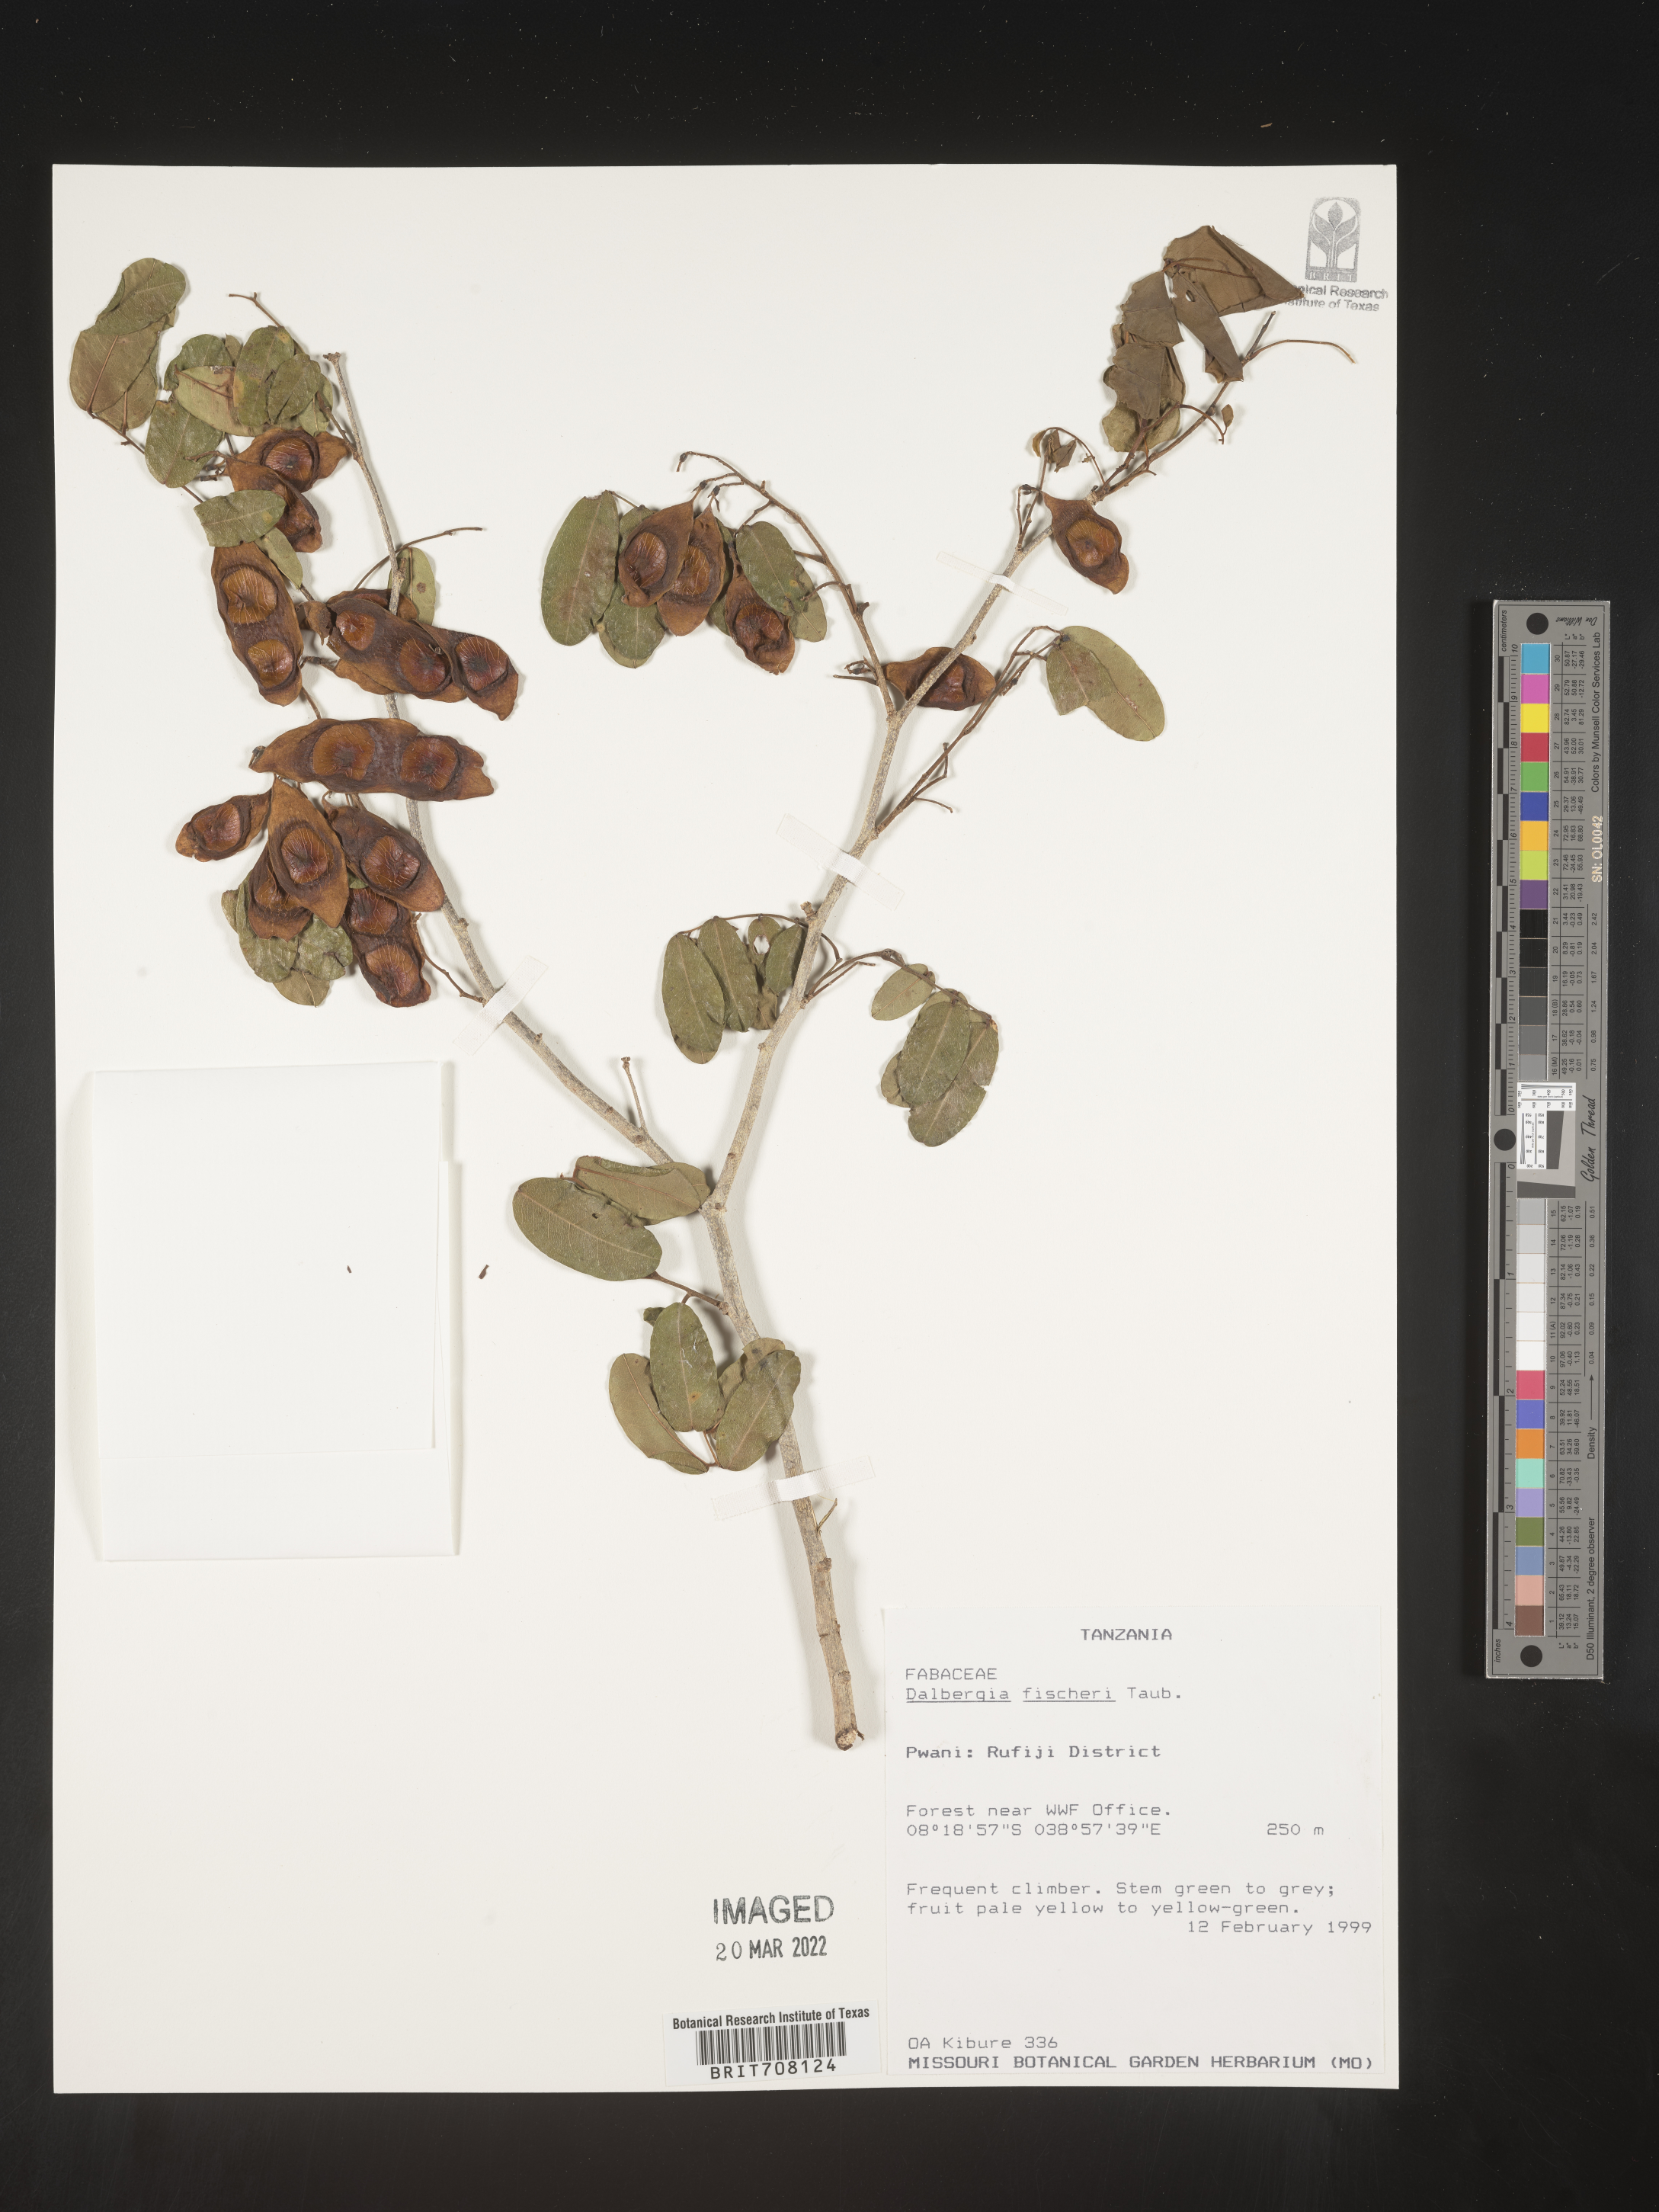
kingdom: Plantae
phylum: Tracheophyta
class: Magnoliopsida
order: Fabales
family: Fabaceae
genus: Dalbergia
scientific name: Dalbergia
